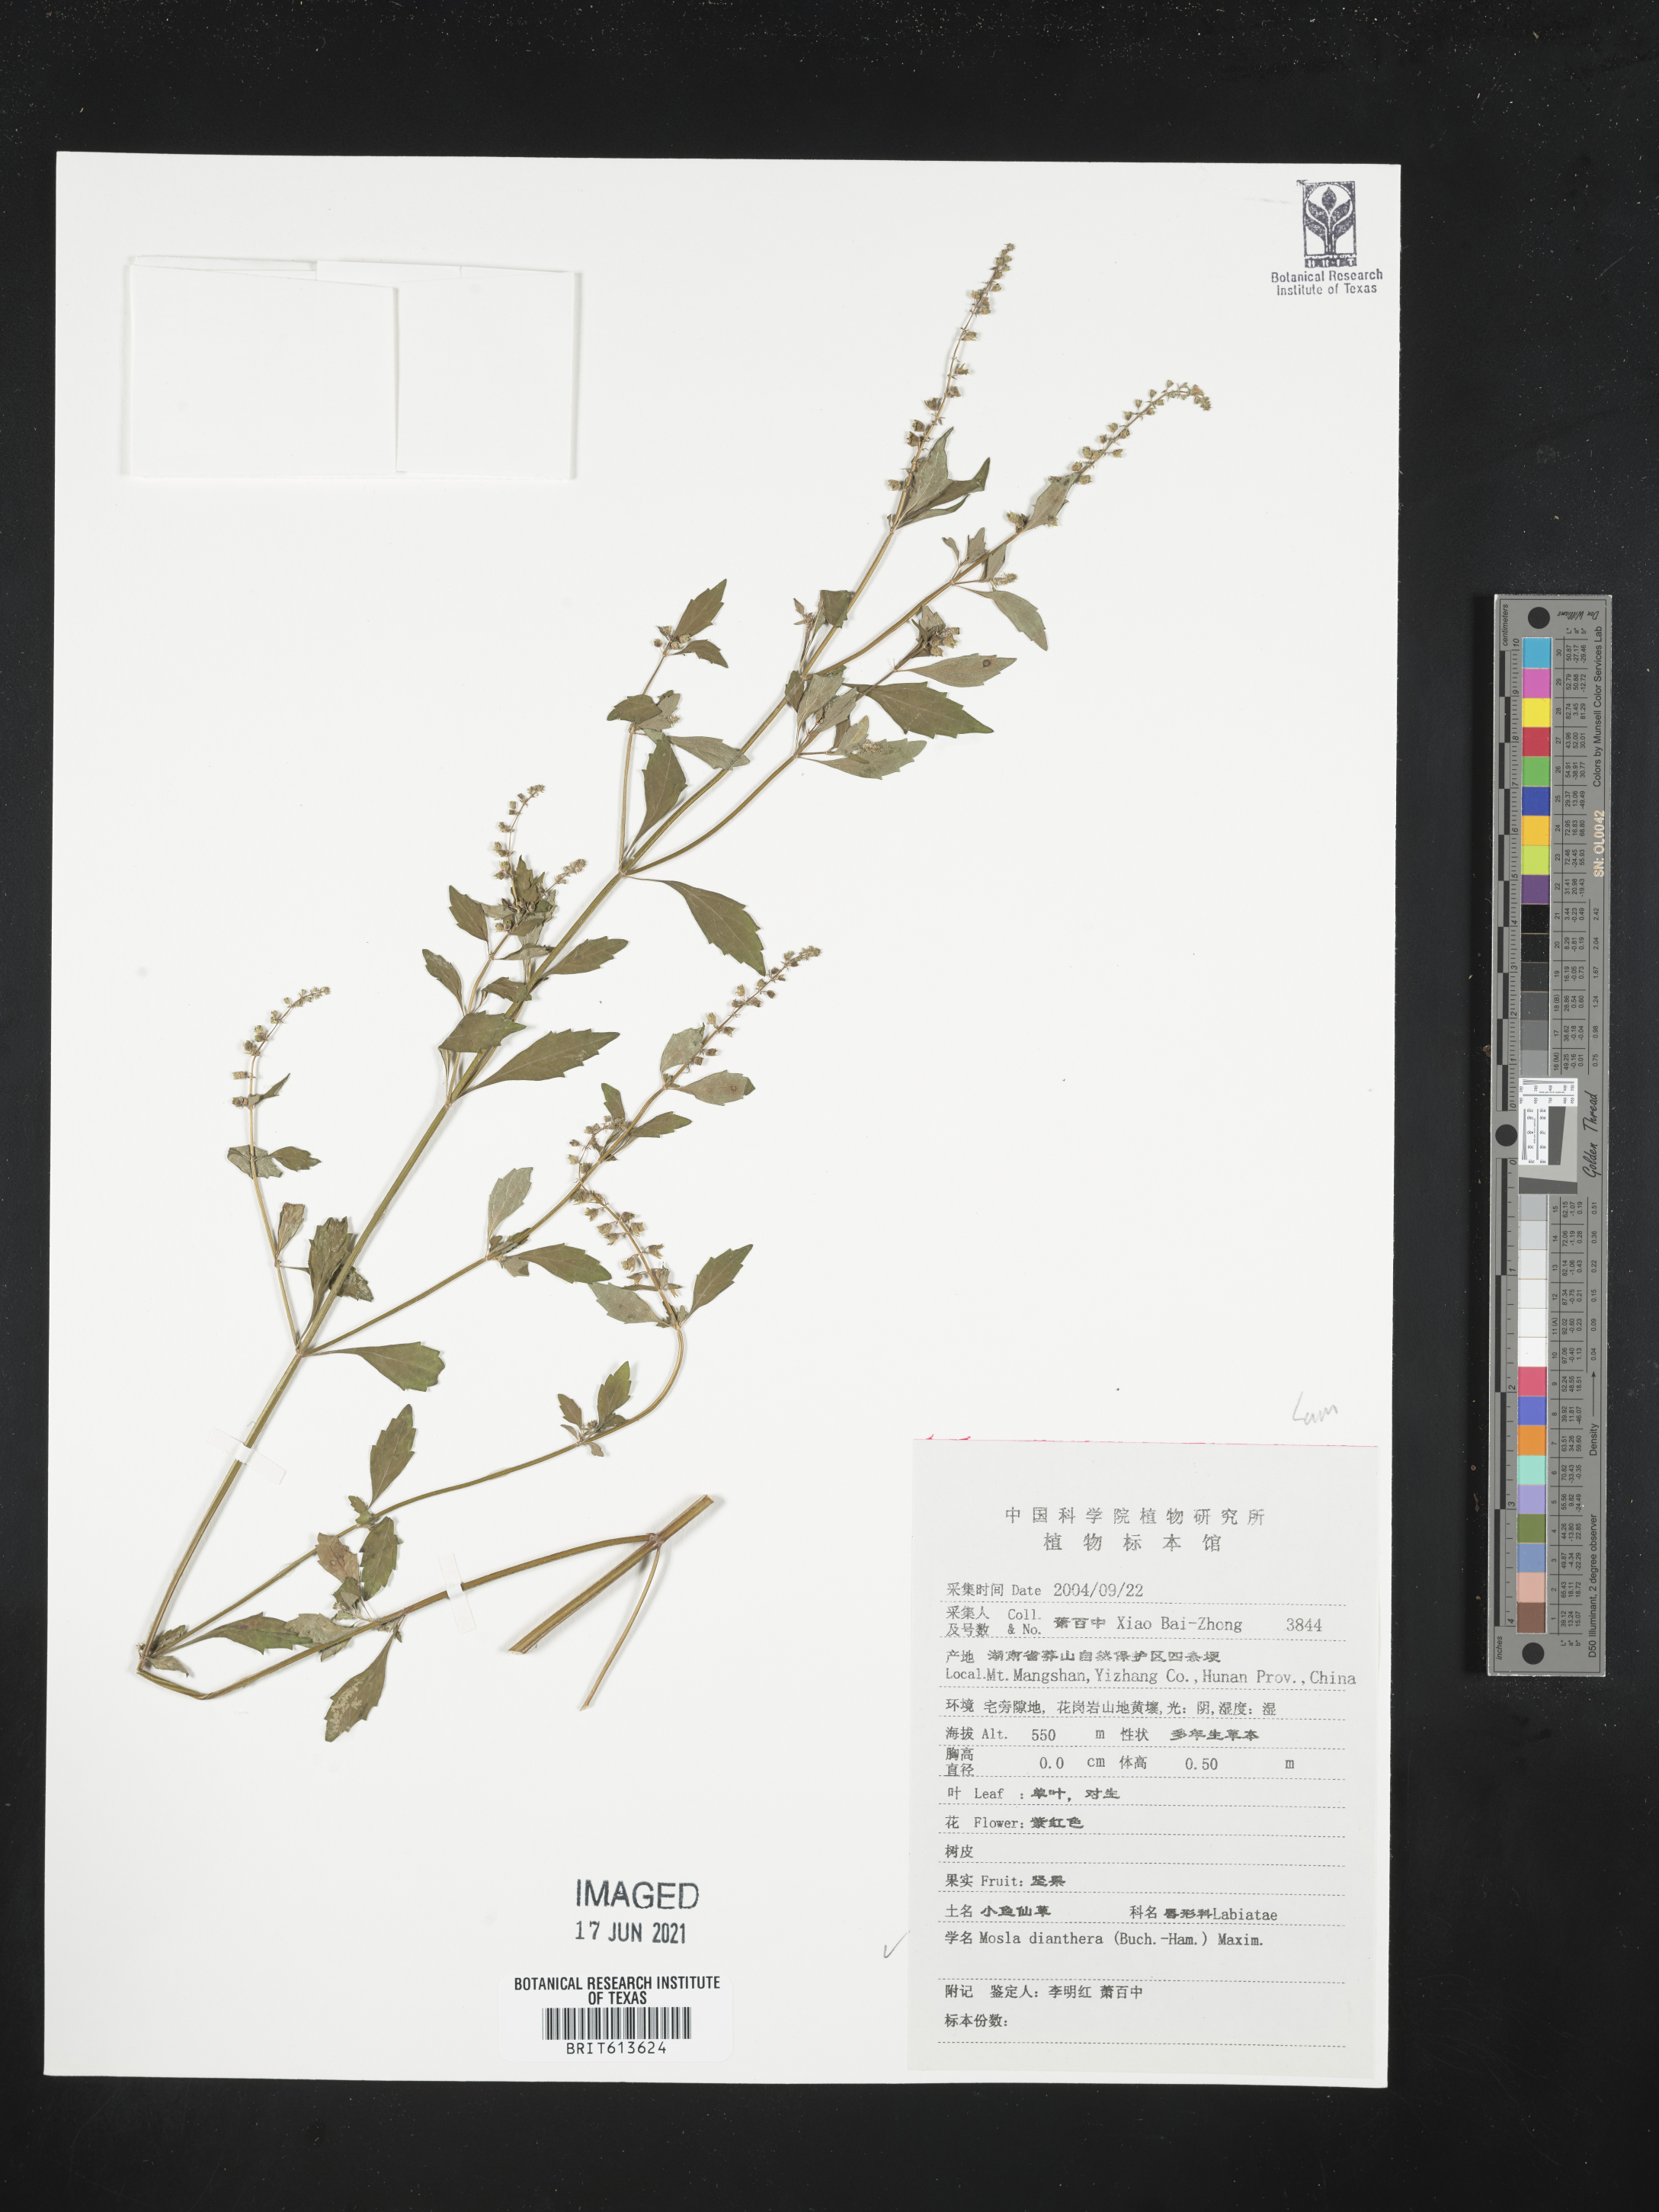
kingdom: Plantae
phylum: Tracheophyta
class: Magnoliopsida
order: Lamiales
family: Lamiaceae
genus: Mosla
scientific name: Mosla dianthera
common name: Miniature beefsteakplant
